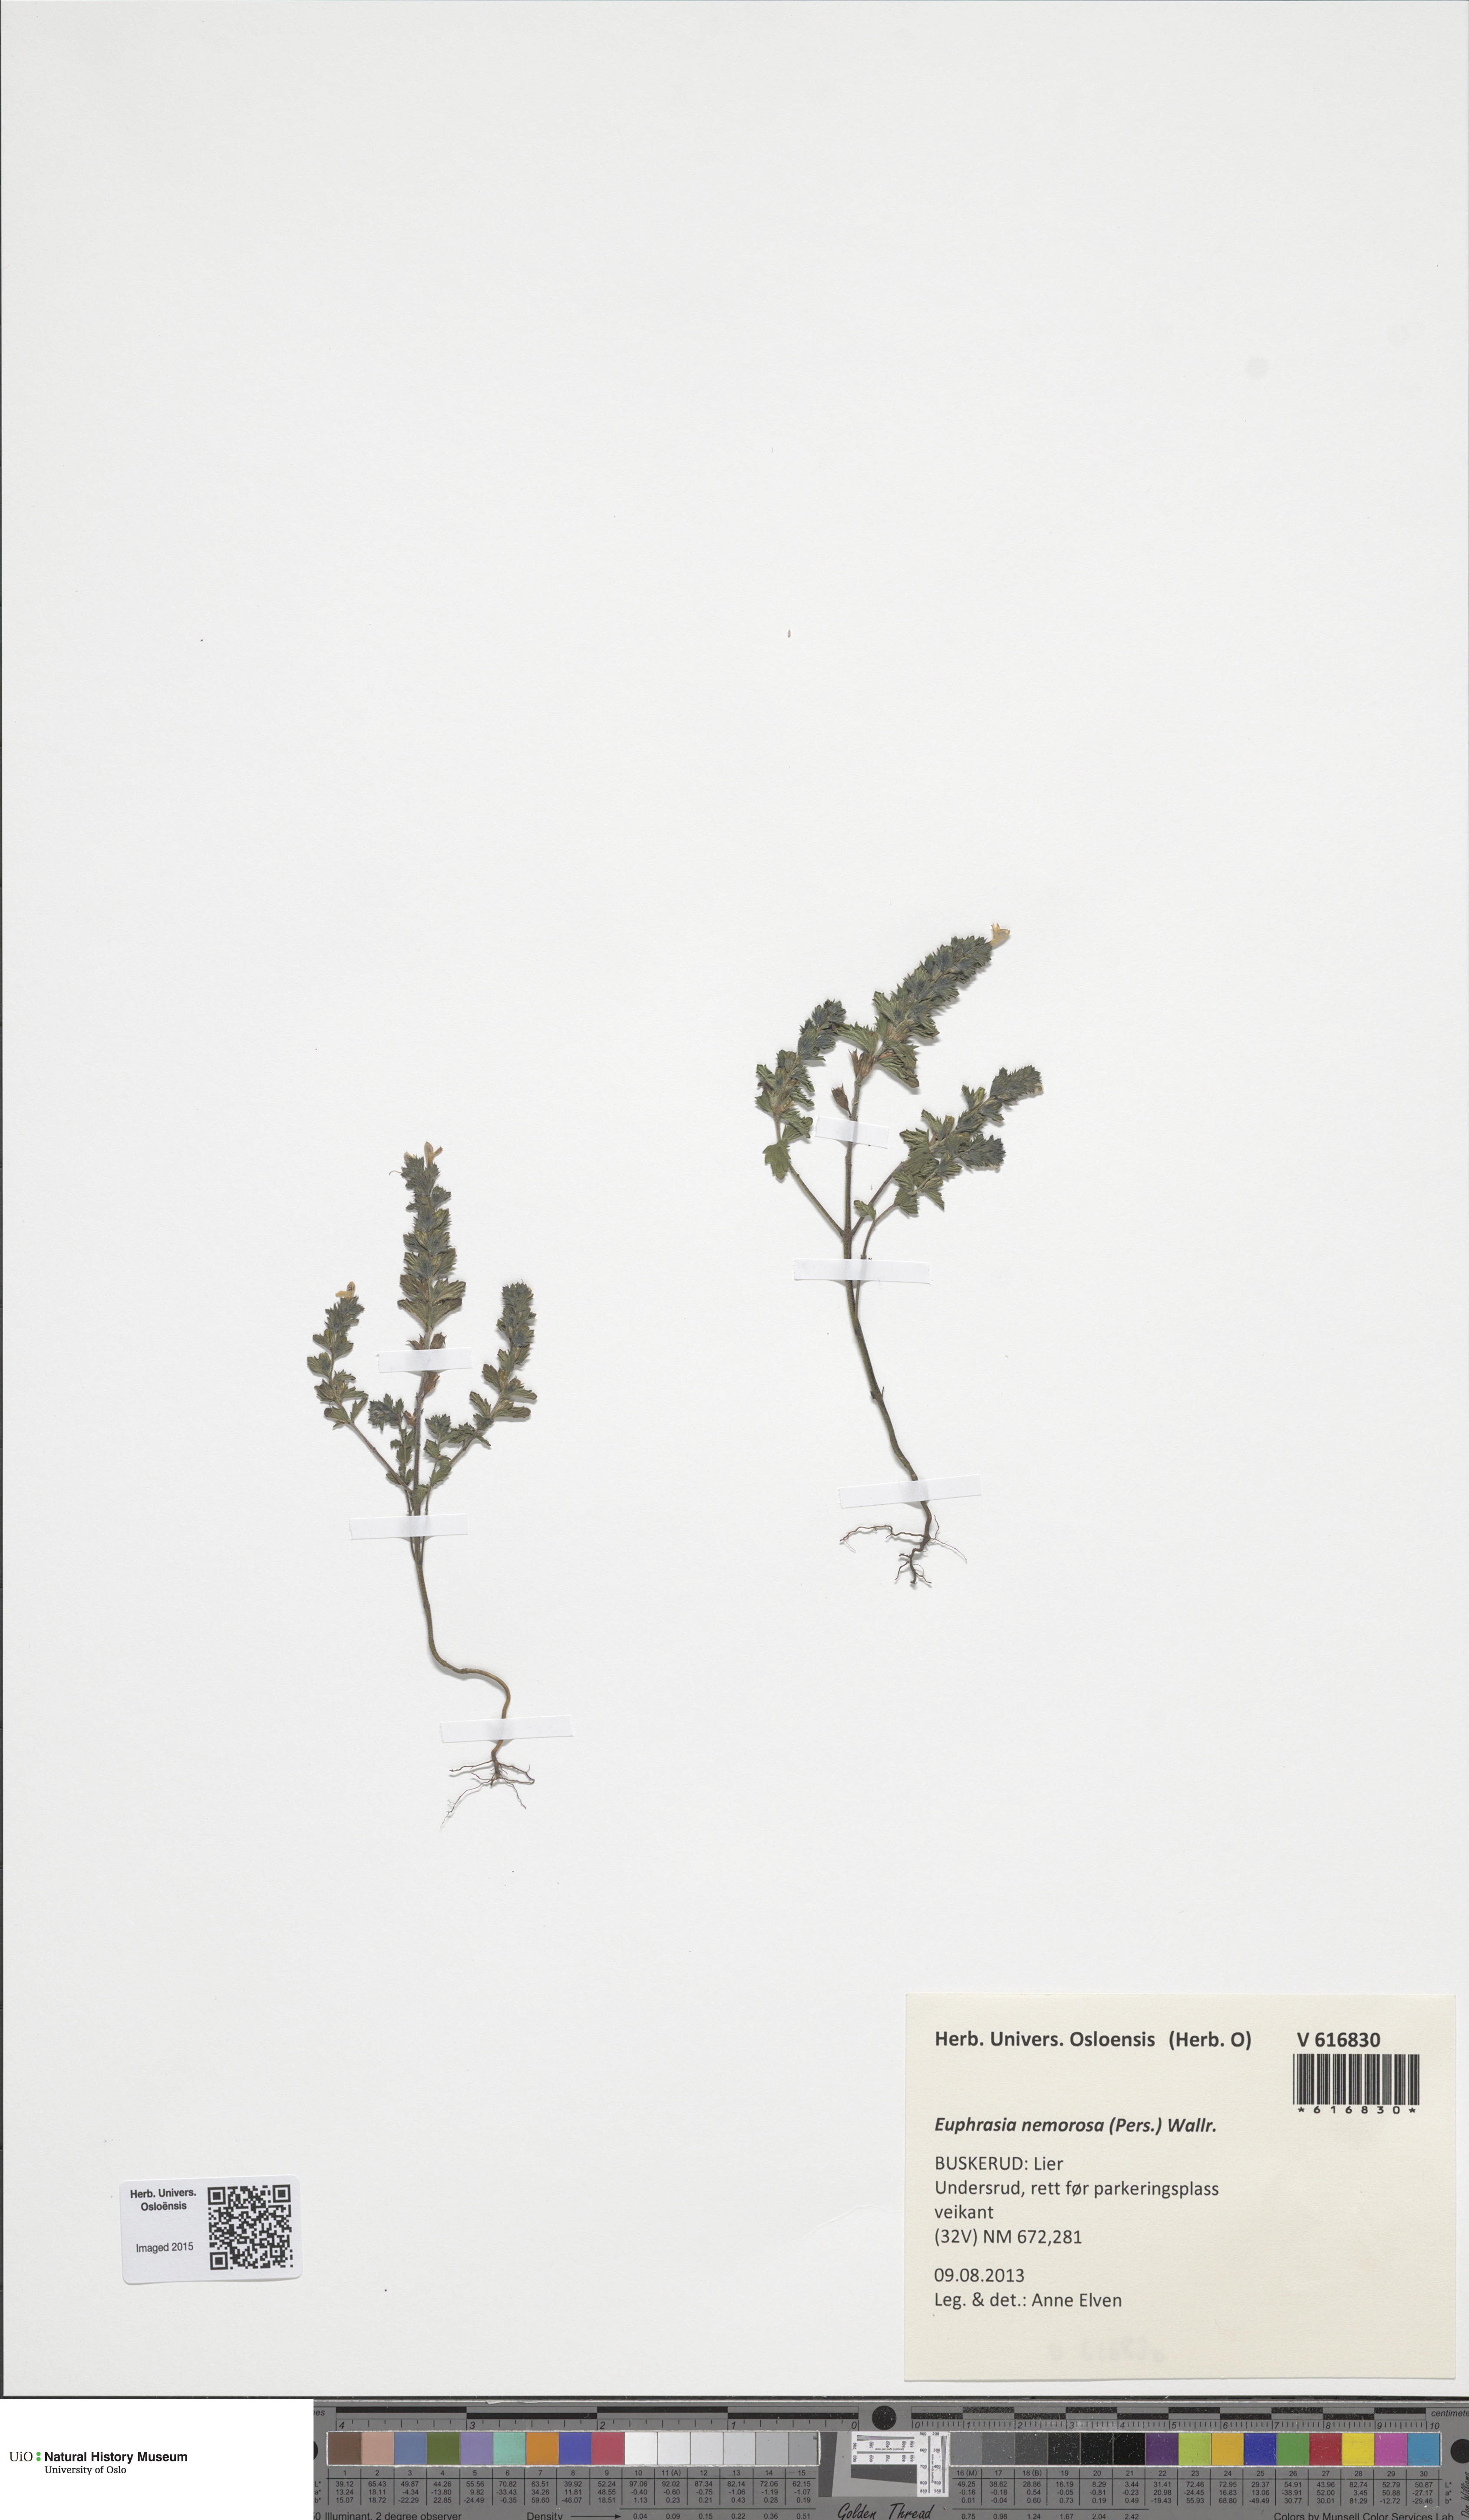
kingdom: Plantae
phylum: Tracheophyta
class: Magnoliopsida
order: Lamiales
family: Orobanchaceae
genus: Euphrasia
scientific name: Euphrasia nemorosa
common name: Common eyebright
